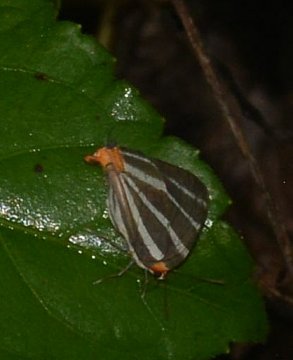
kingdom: Animalia
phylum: Arthropoda
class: Insecta
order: Lepidoptera
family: Lycaenidae
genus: Thecla
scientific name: Thecla bathildis
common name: Zebra-striped Hairstreak
